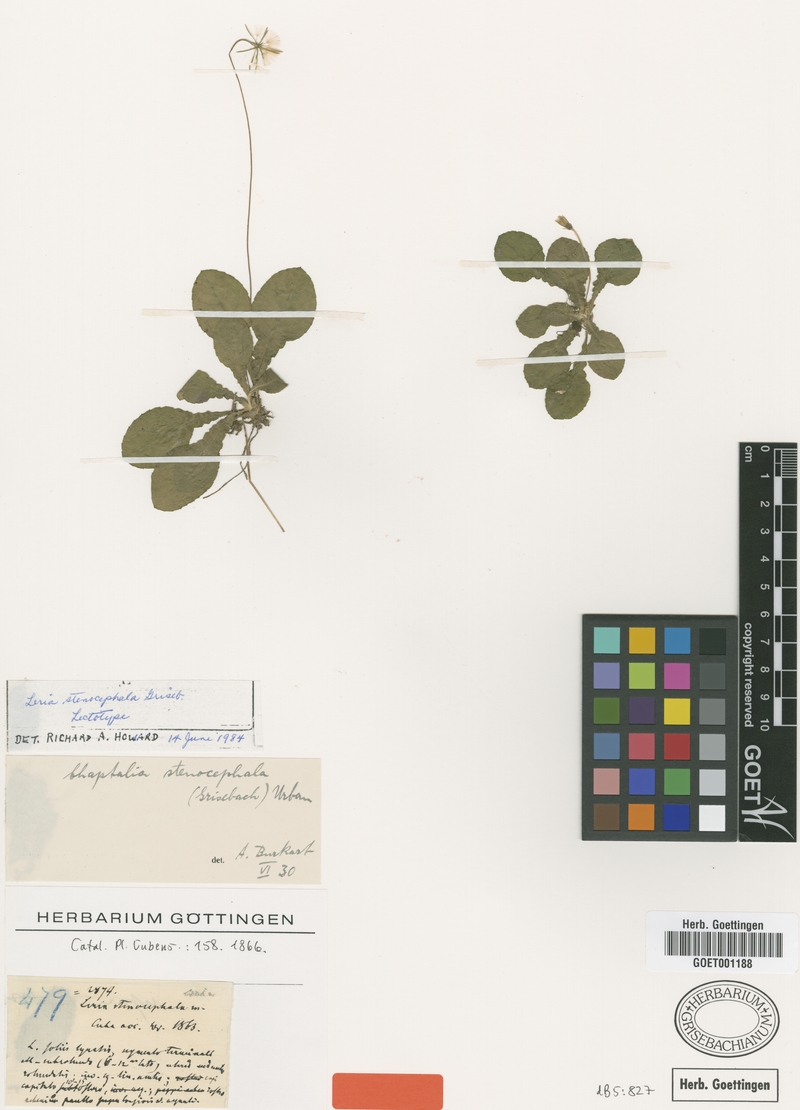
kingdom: Plantae
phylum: Tracheophyta
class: Magnoliopsida
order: Asterales
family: Asteraceae
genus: Chaptalia
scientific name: Chaptalia stenocephala
